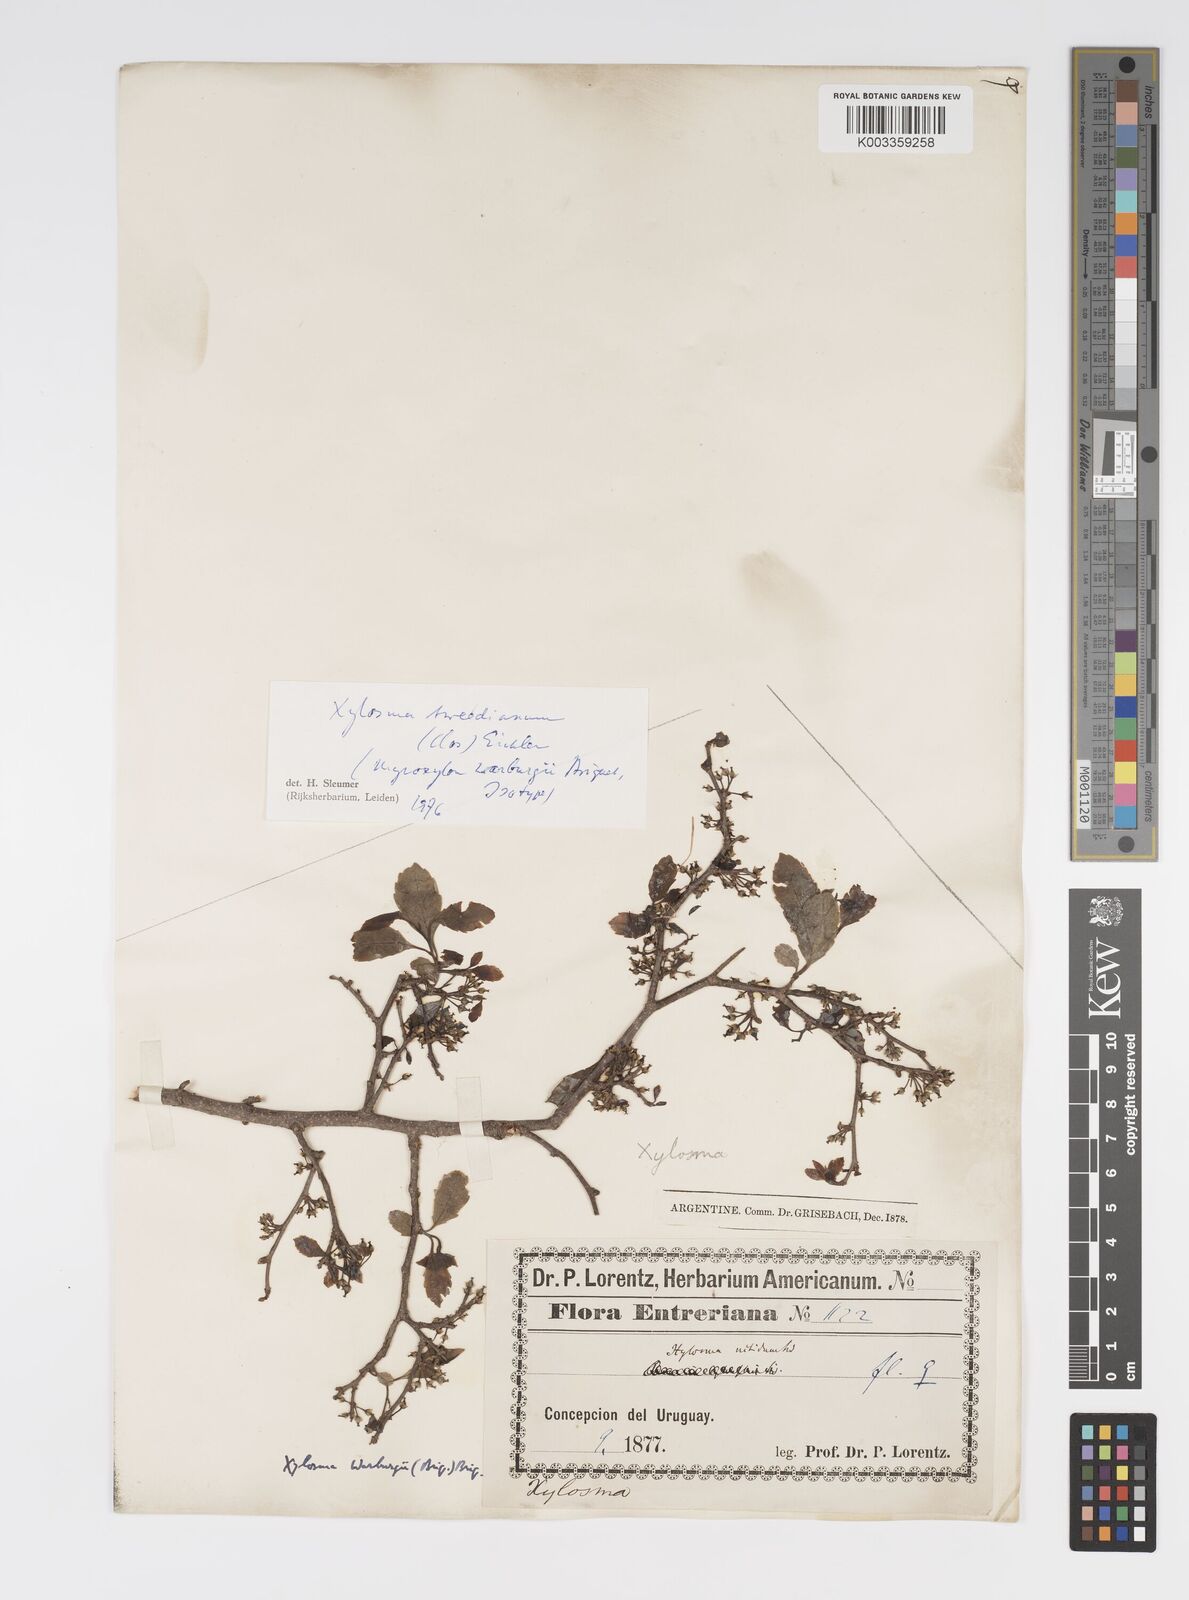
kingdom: Plantae
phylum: Tracheophyta
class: Magnoliopsida
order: Malpighiales
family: Salicaceae
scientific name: Salicaceae
